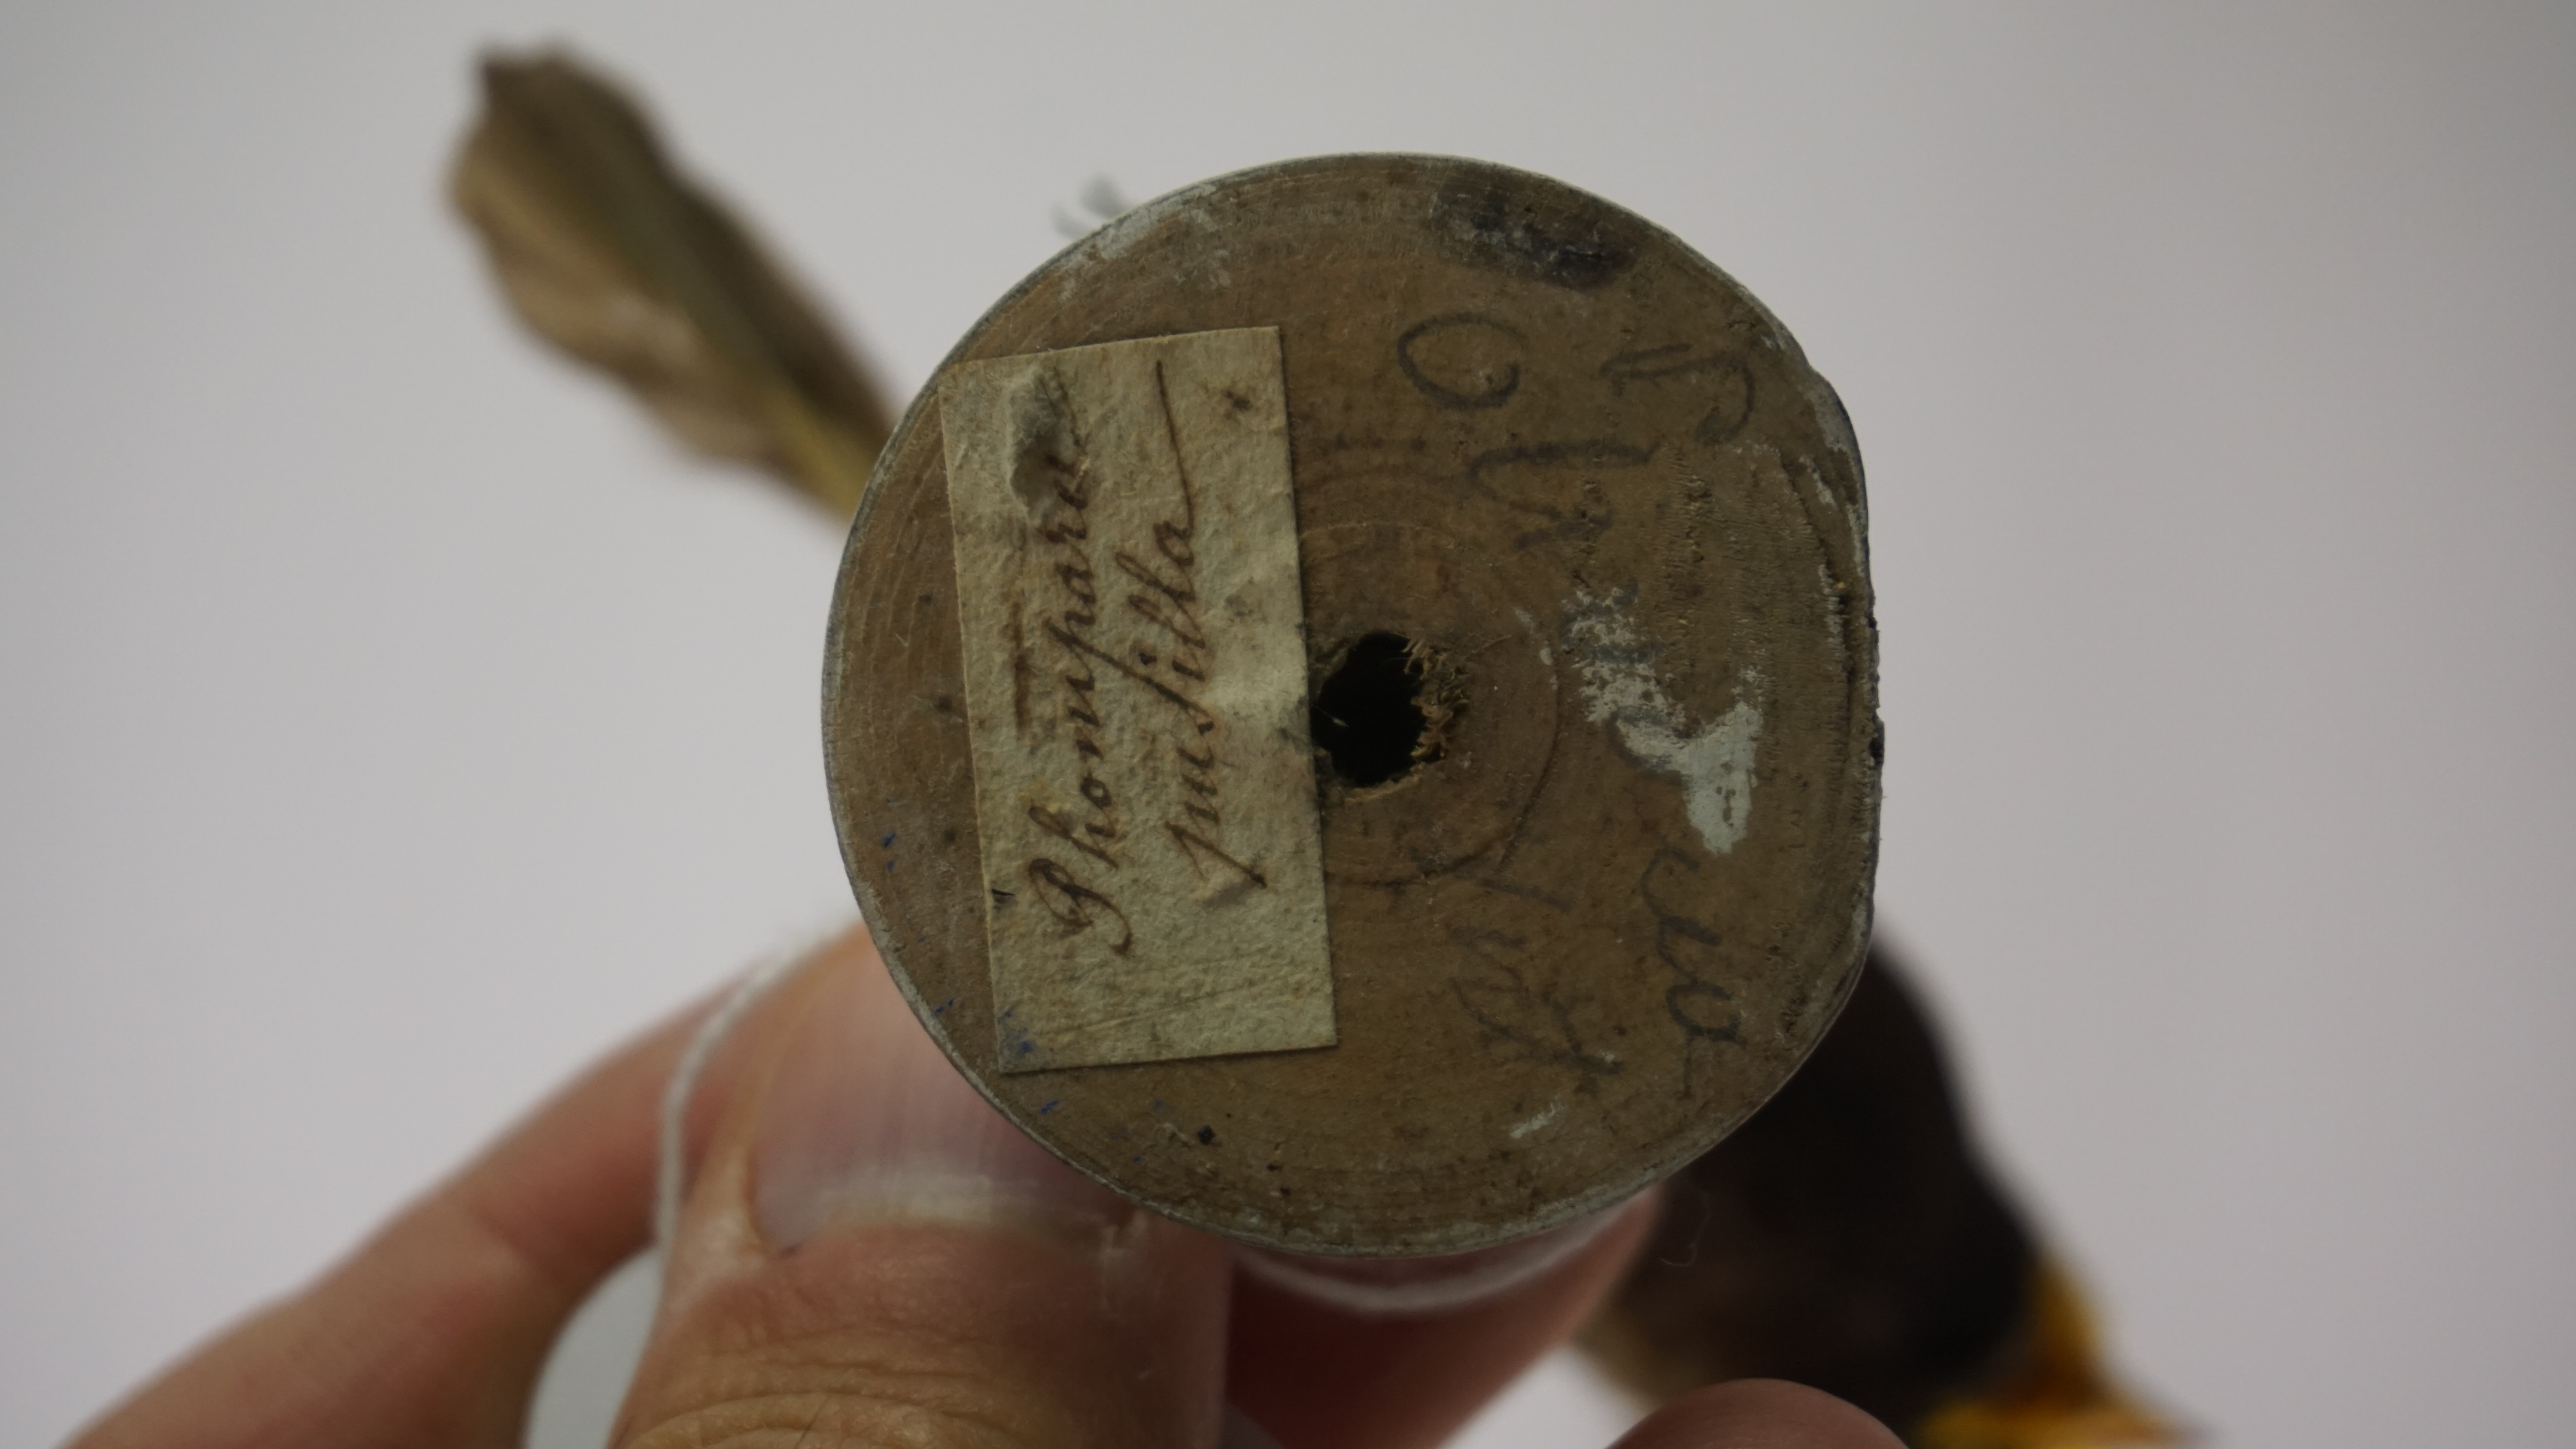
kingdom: Animalia
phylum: Chordata
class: Aves
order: Passeriformes
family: Thraupidae
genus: Tiaris
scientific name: Tiaris olivaceus
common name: Yellow-faced grassquit
